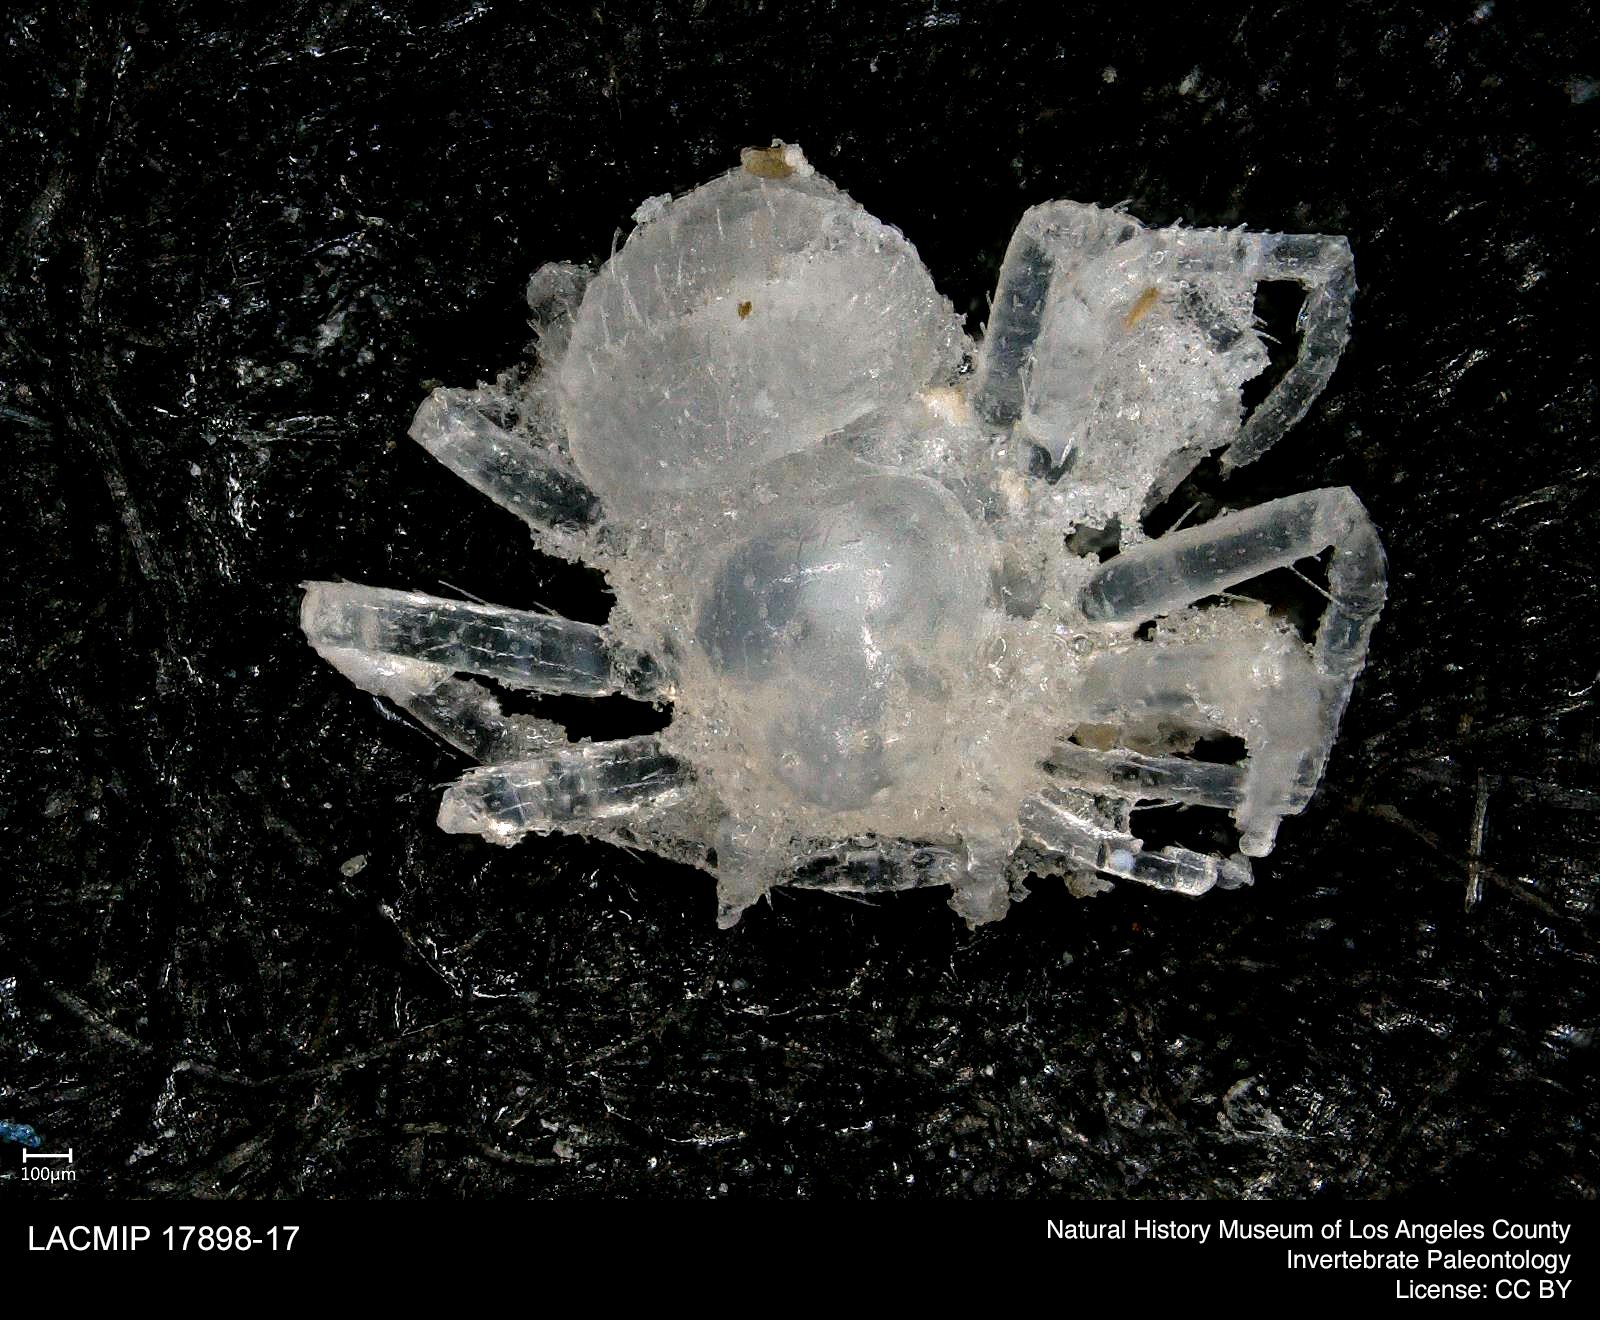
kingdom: Animalia
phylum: Arthropoda
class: Arachnida
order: Araneae
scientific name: Araneae
